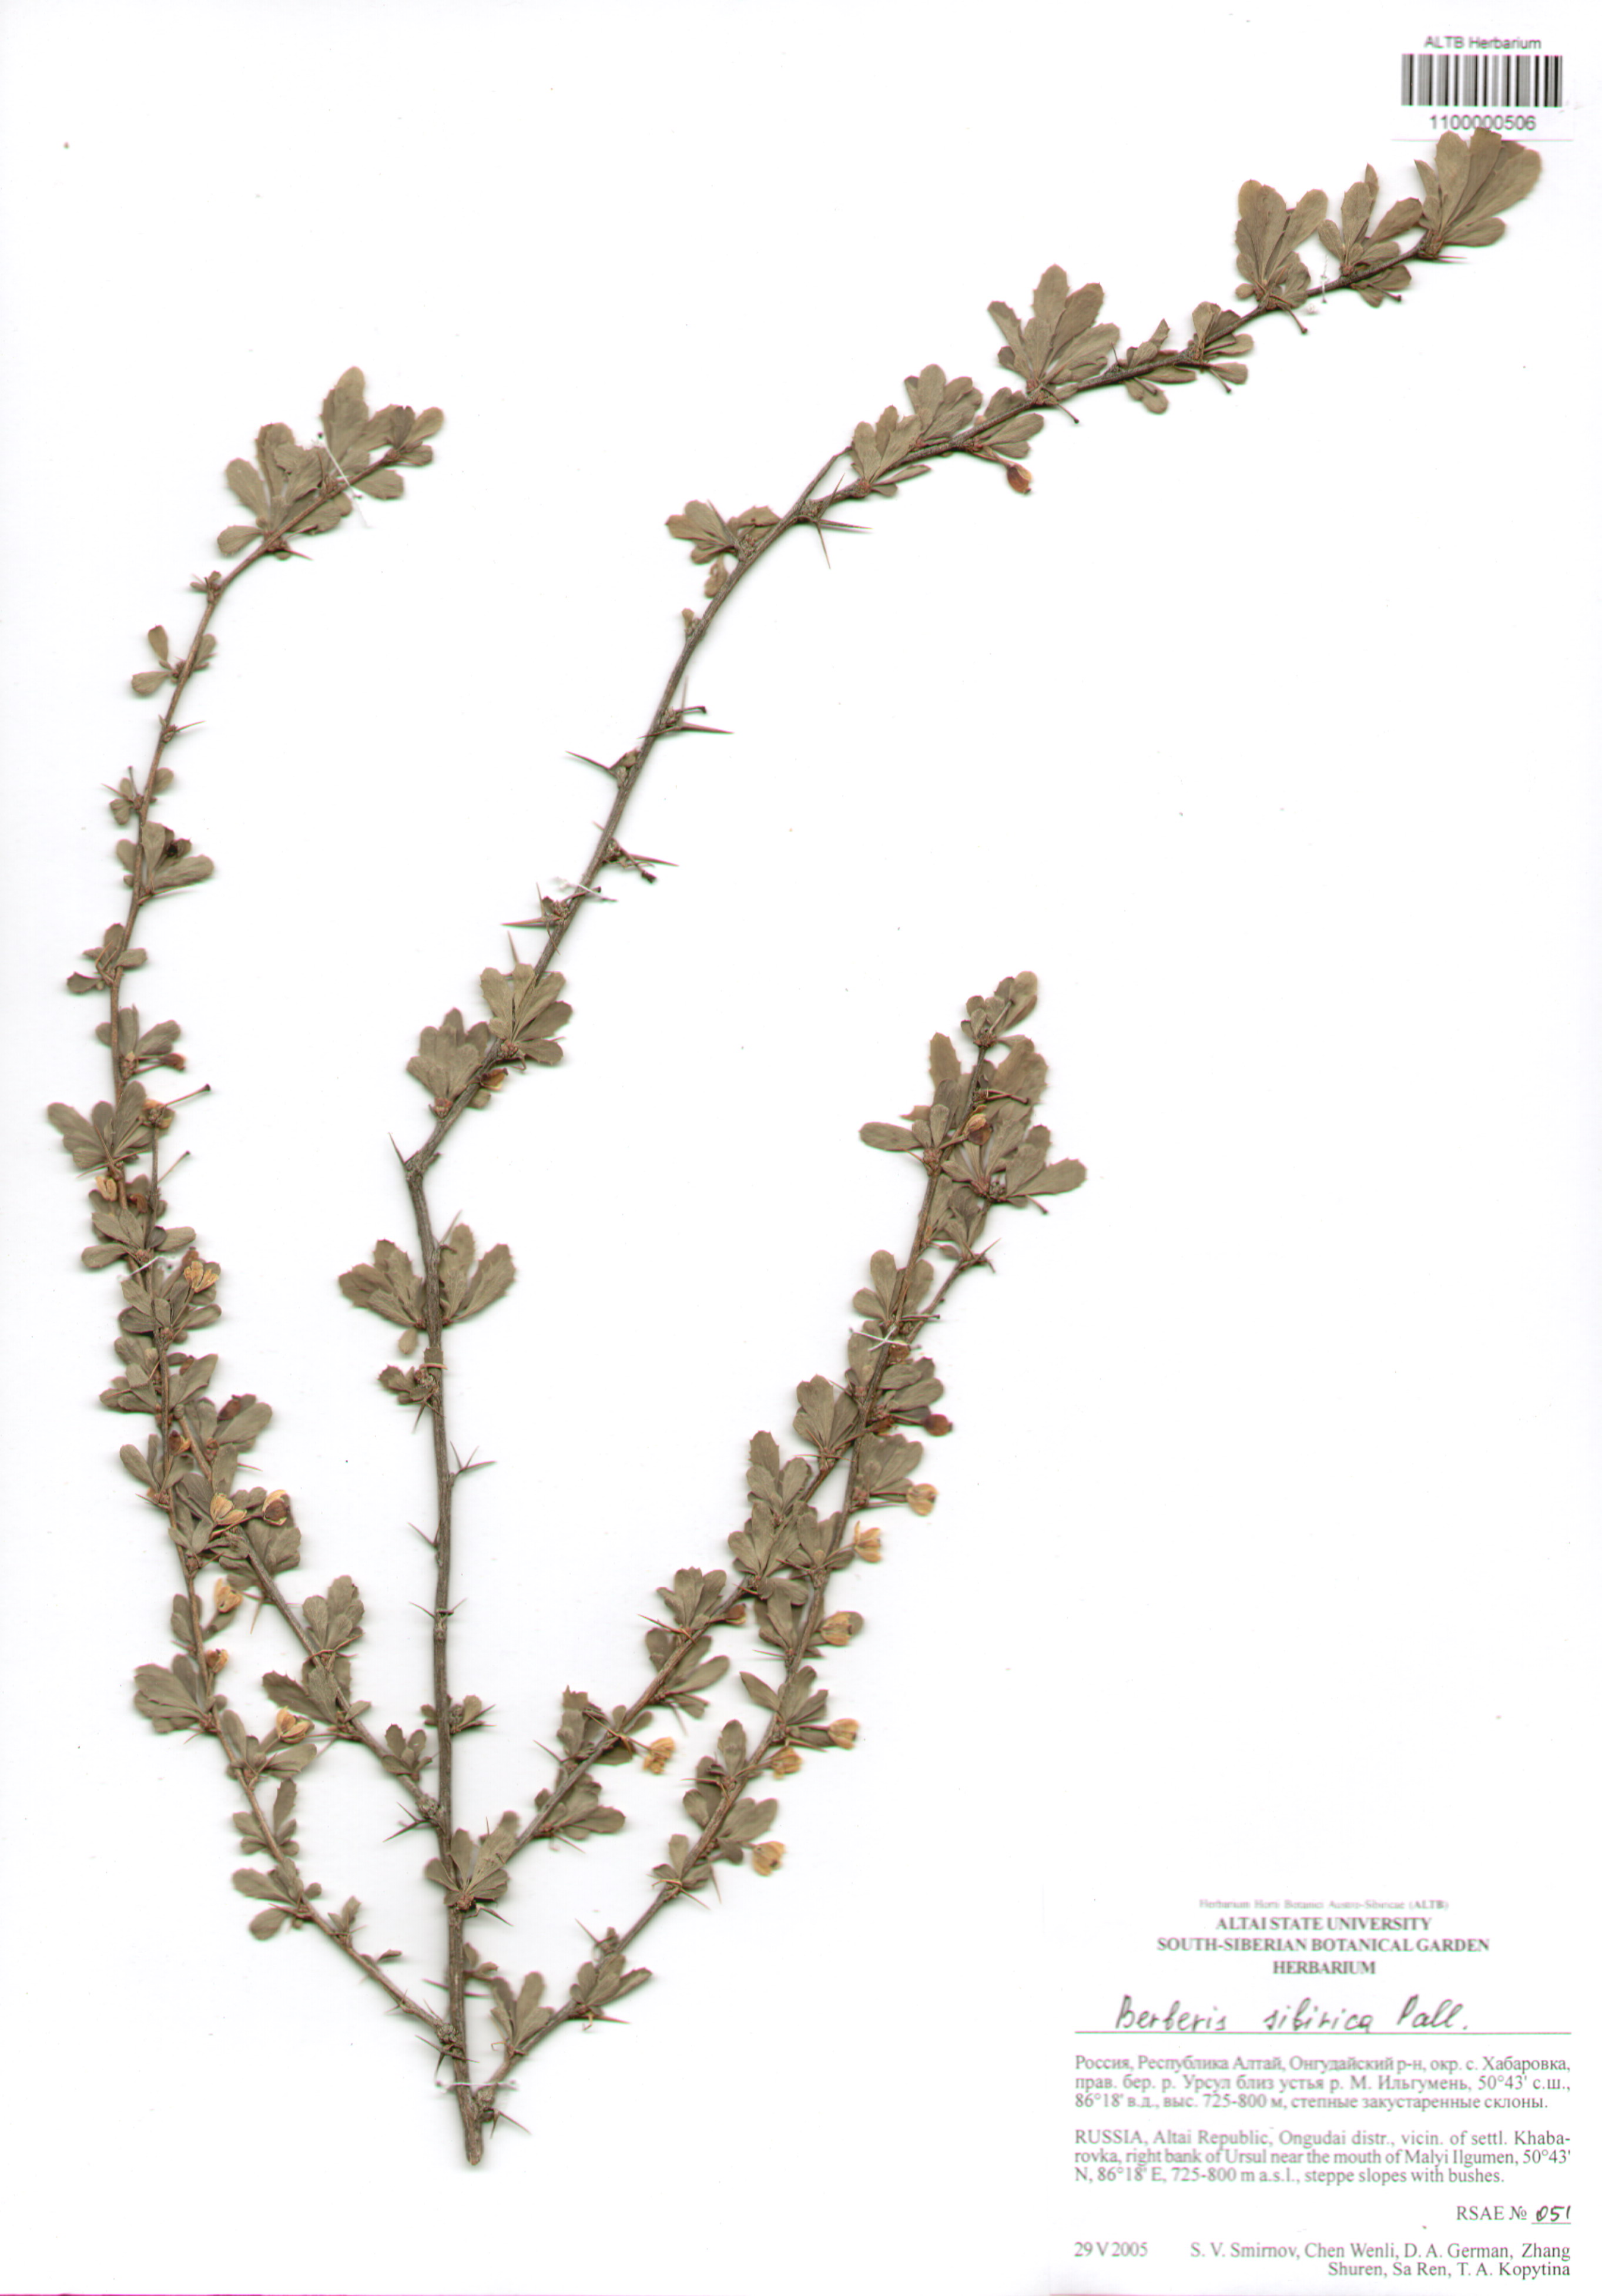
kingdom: Plantae
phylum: Tracheophyta
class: Magnoliopsida
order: Ranunculales
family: Berberidaceae
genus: Berberis
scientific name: Berberis sibirica
